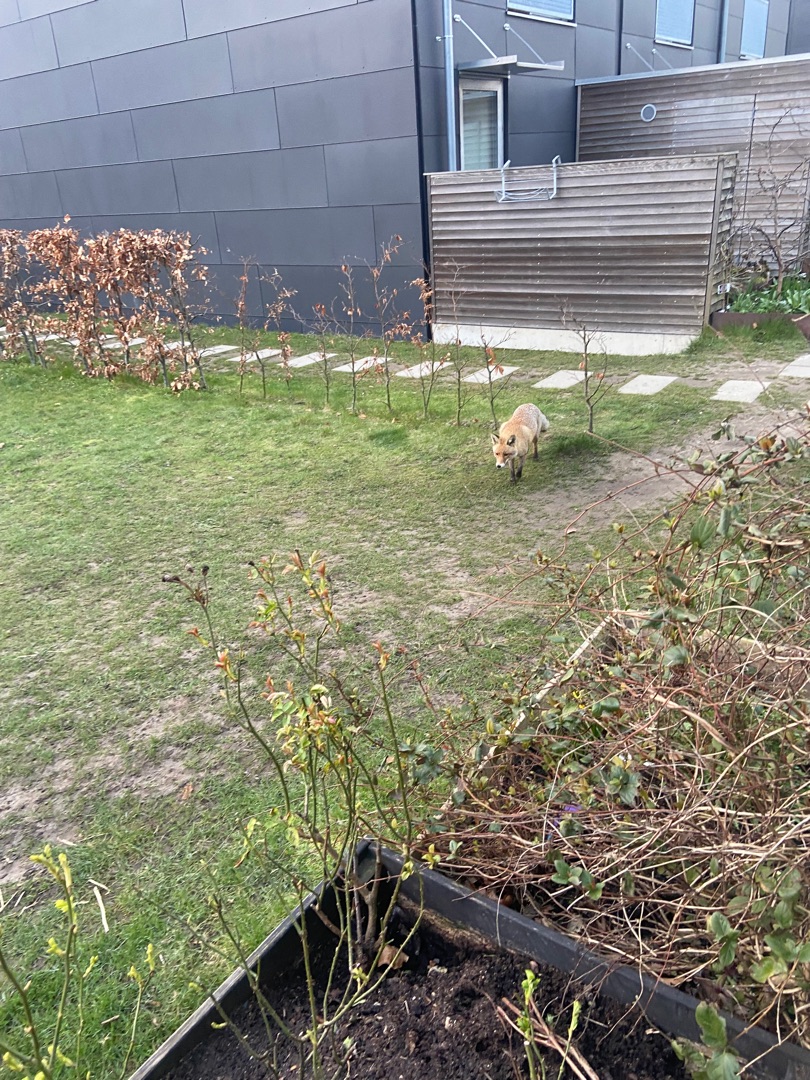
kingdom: Animalia
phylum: Chordata
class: Mammalia
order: Carnivora
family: Canidae
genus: Vulpes
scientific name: Vulpes vulpes
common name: Ræv
